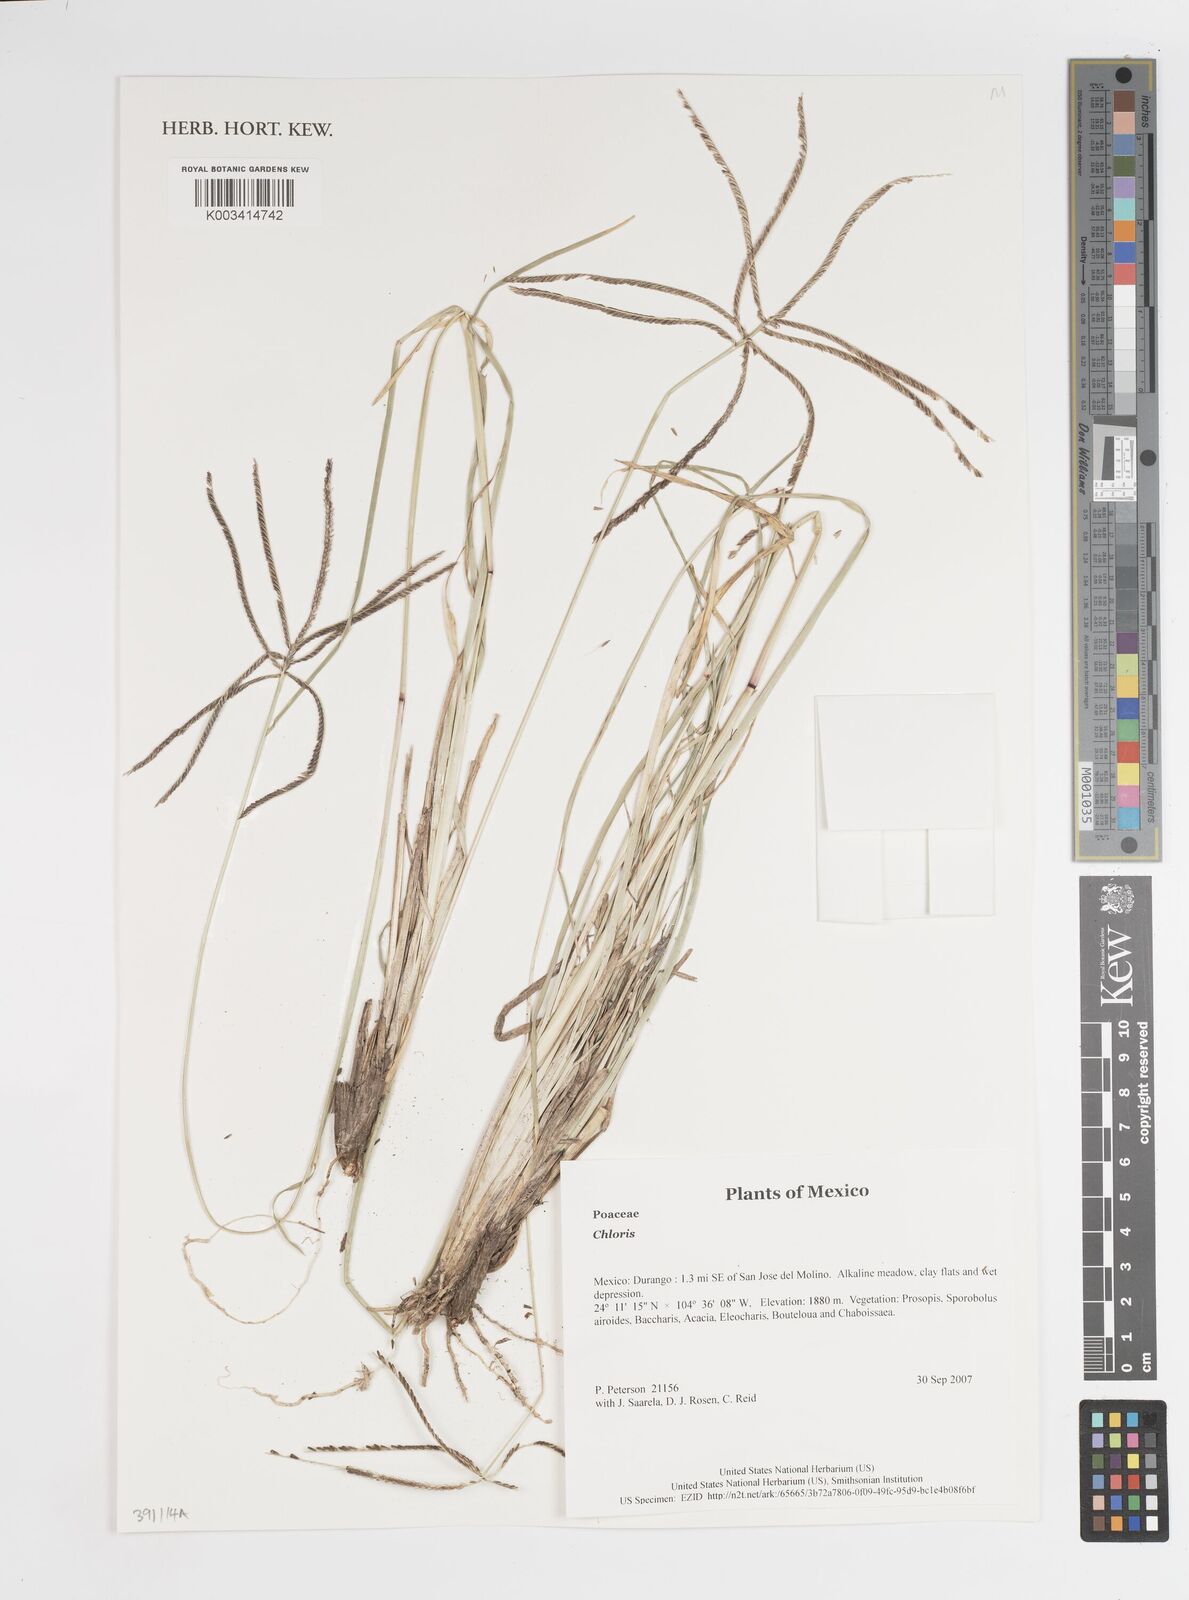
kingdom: Plantae
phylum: Tracheophyta
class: Liliopsida
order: Poales
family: Poaceae
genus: Chloris
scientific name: Chloris
